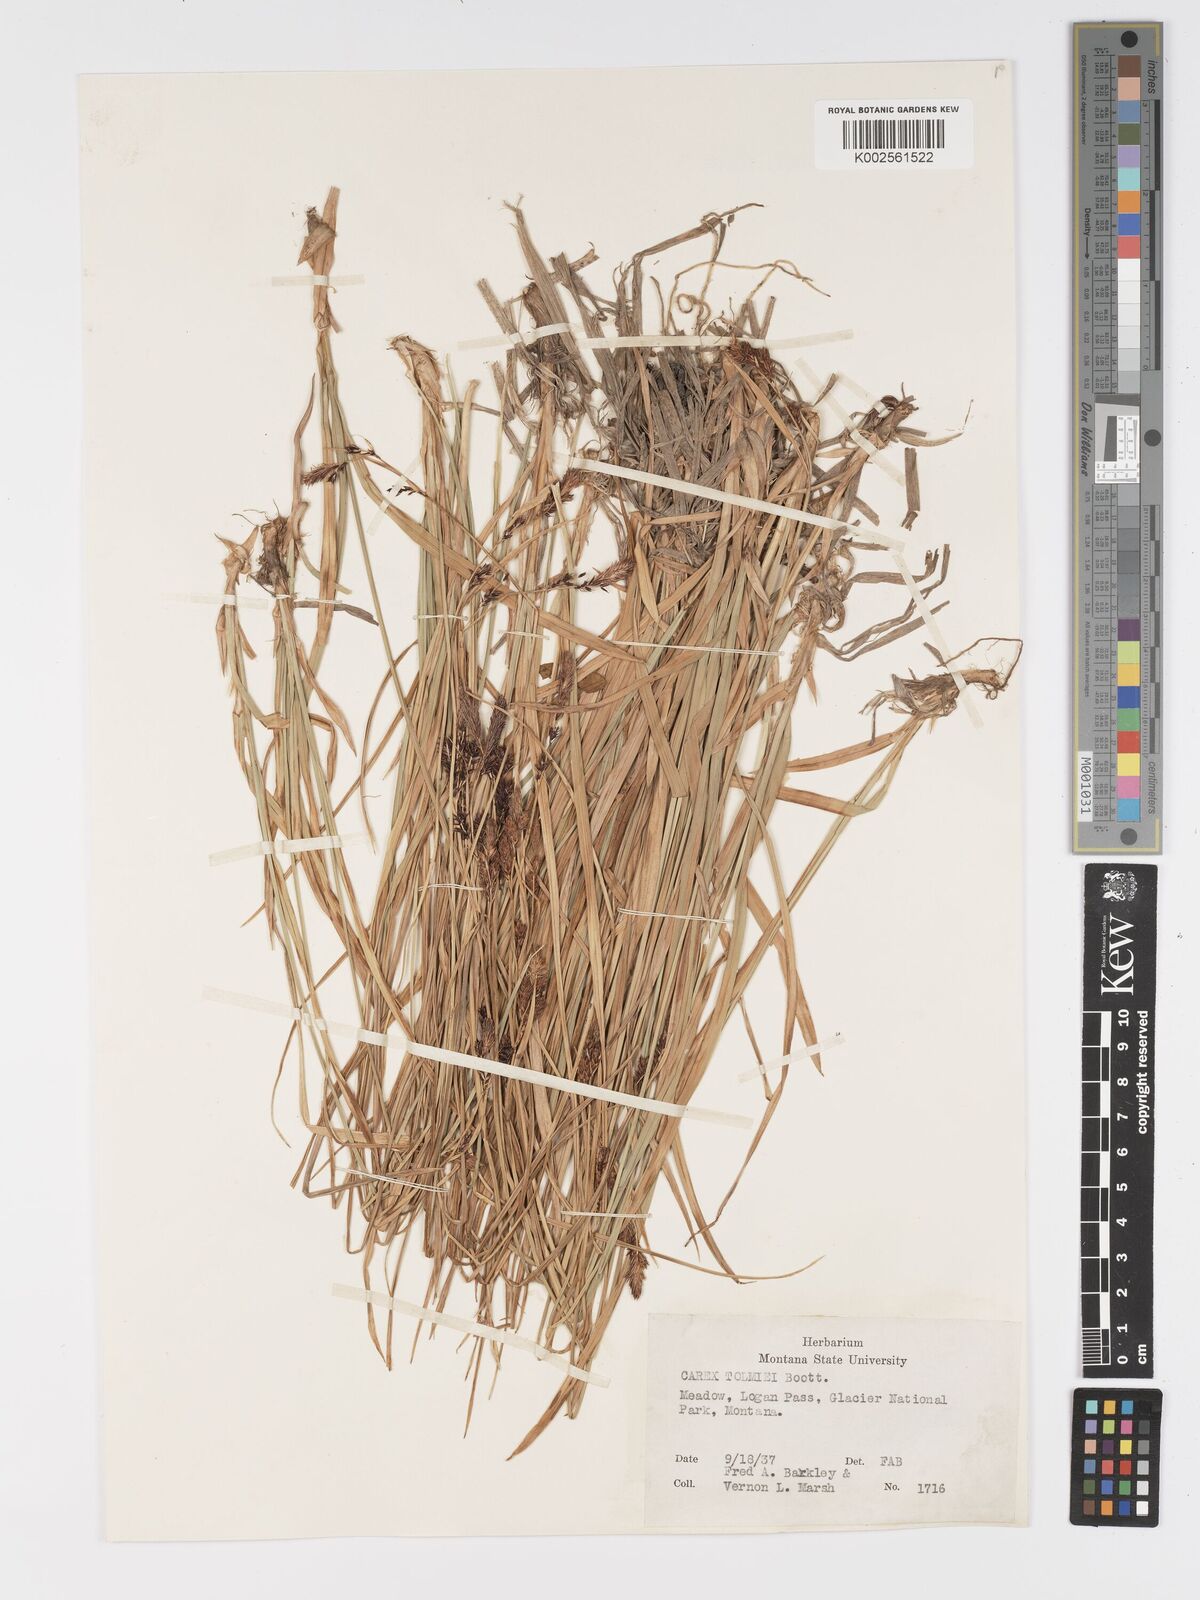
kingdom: Plantae
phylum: Tracheophyta
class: Liliopsida
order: Poales
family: Cyperaceae
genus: Carex
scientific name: Carex spectabilis
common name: Northwestern showy sedge
